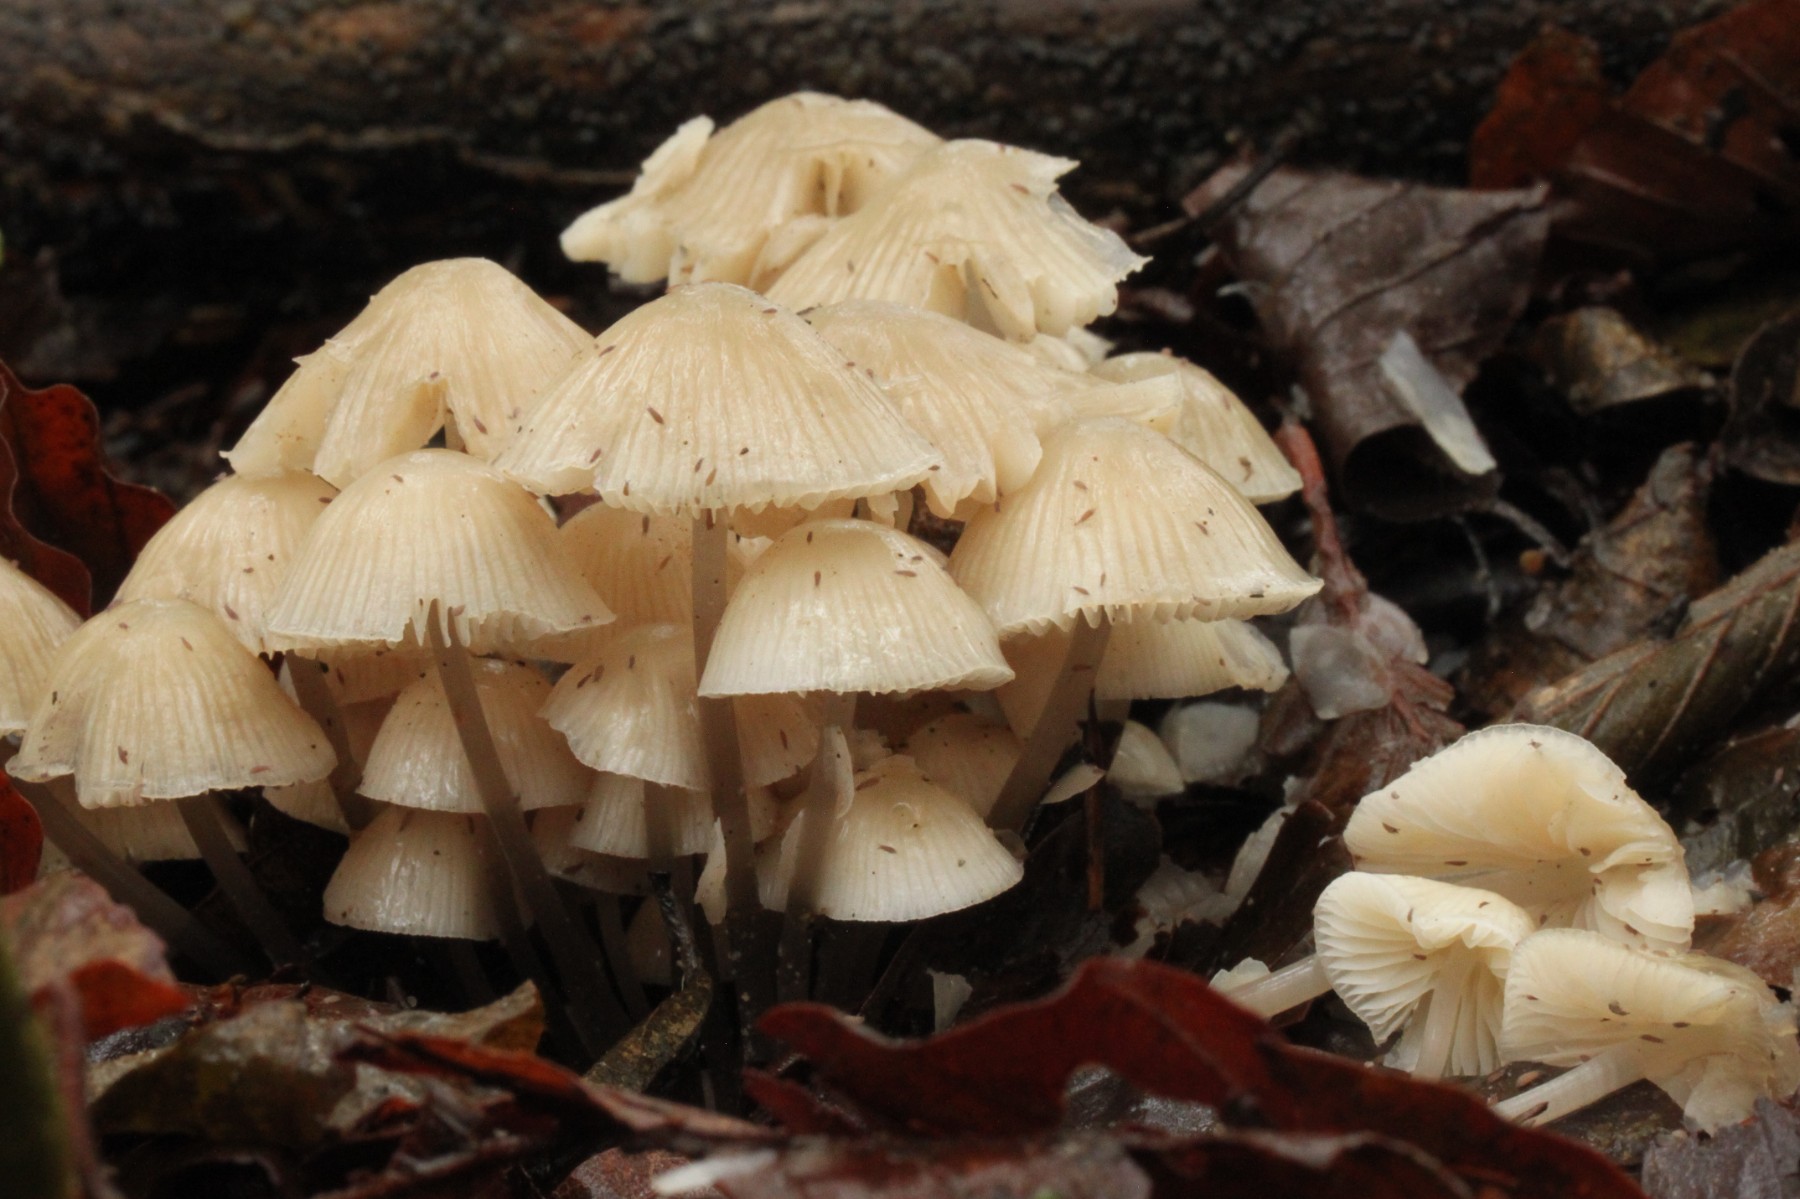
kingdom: Fungi
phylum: Basidiomycota
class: Agaricomycetes
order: Agaricales
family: Mycenaceae
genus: Mycena
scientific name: Mycena romagnesiana
